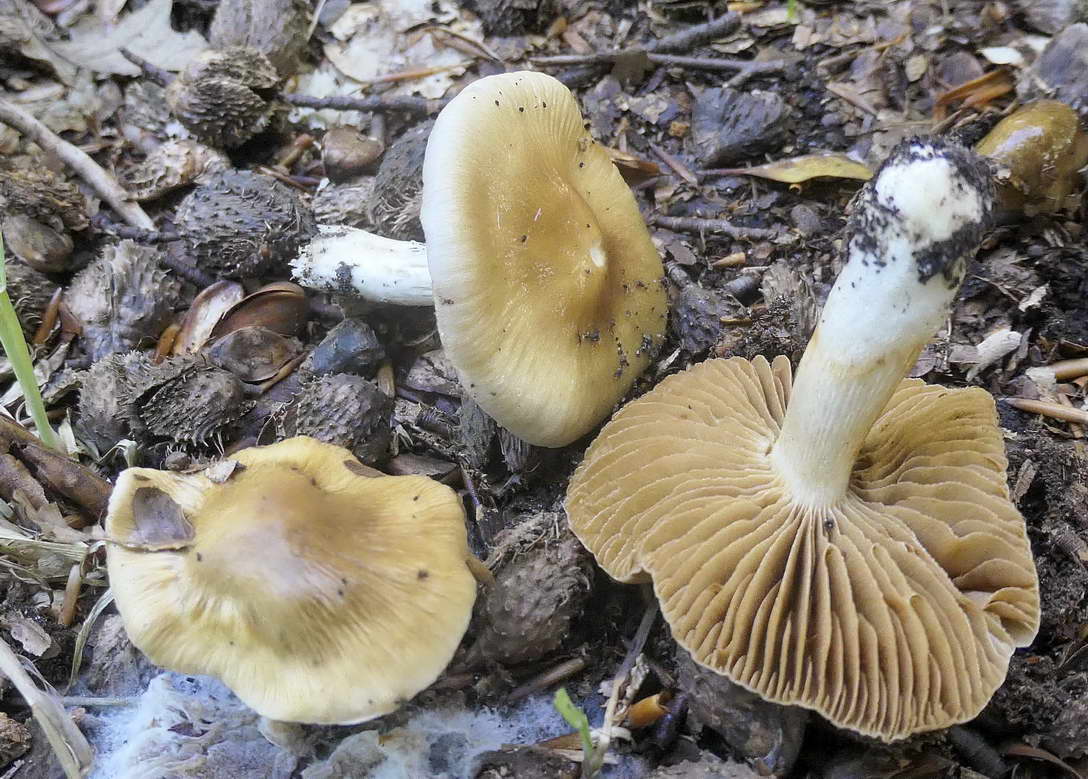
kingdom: Fungi
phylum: Basidiomycota
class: Agaricomycetes
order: Agaricales
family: Cortinariaceae
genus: Cortinarius
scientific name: Cortinarius
